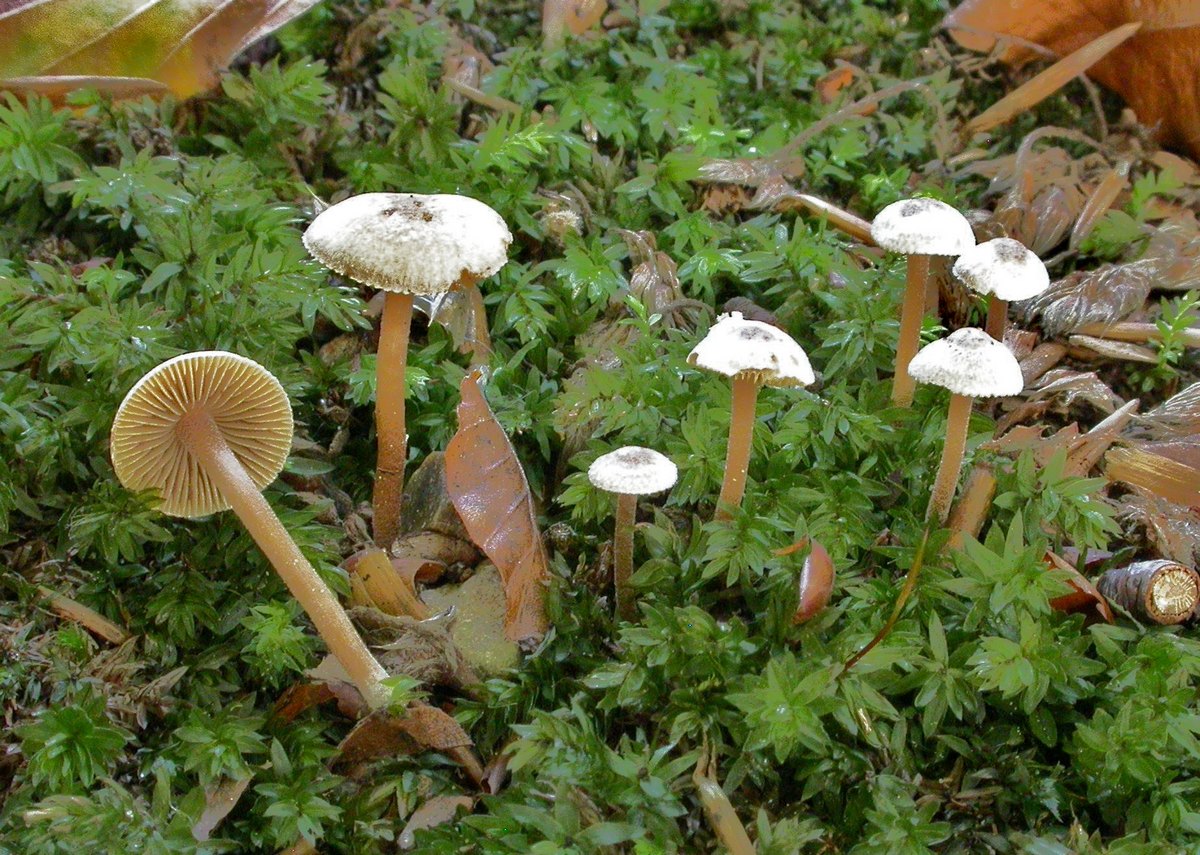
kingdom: Fungi
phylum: Basidiomycota
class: Agaricomycetes
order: Agaricales
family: Inocybaceae
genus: Inocybe
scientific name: Inocybe petiginosa
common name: liden trævlhat
